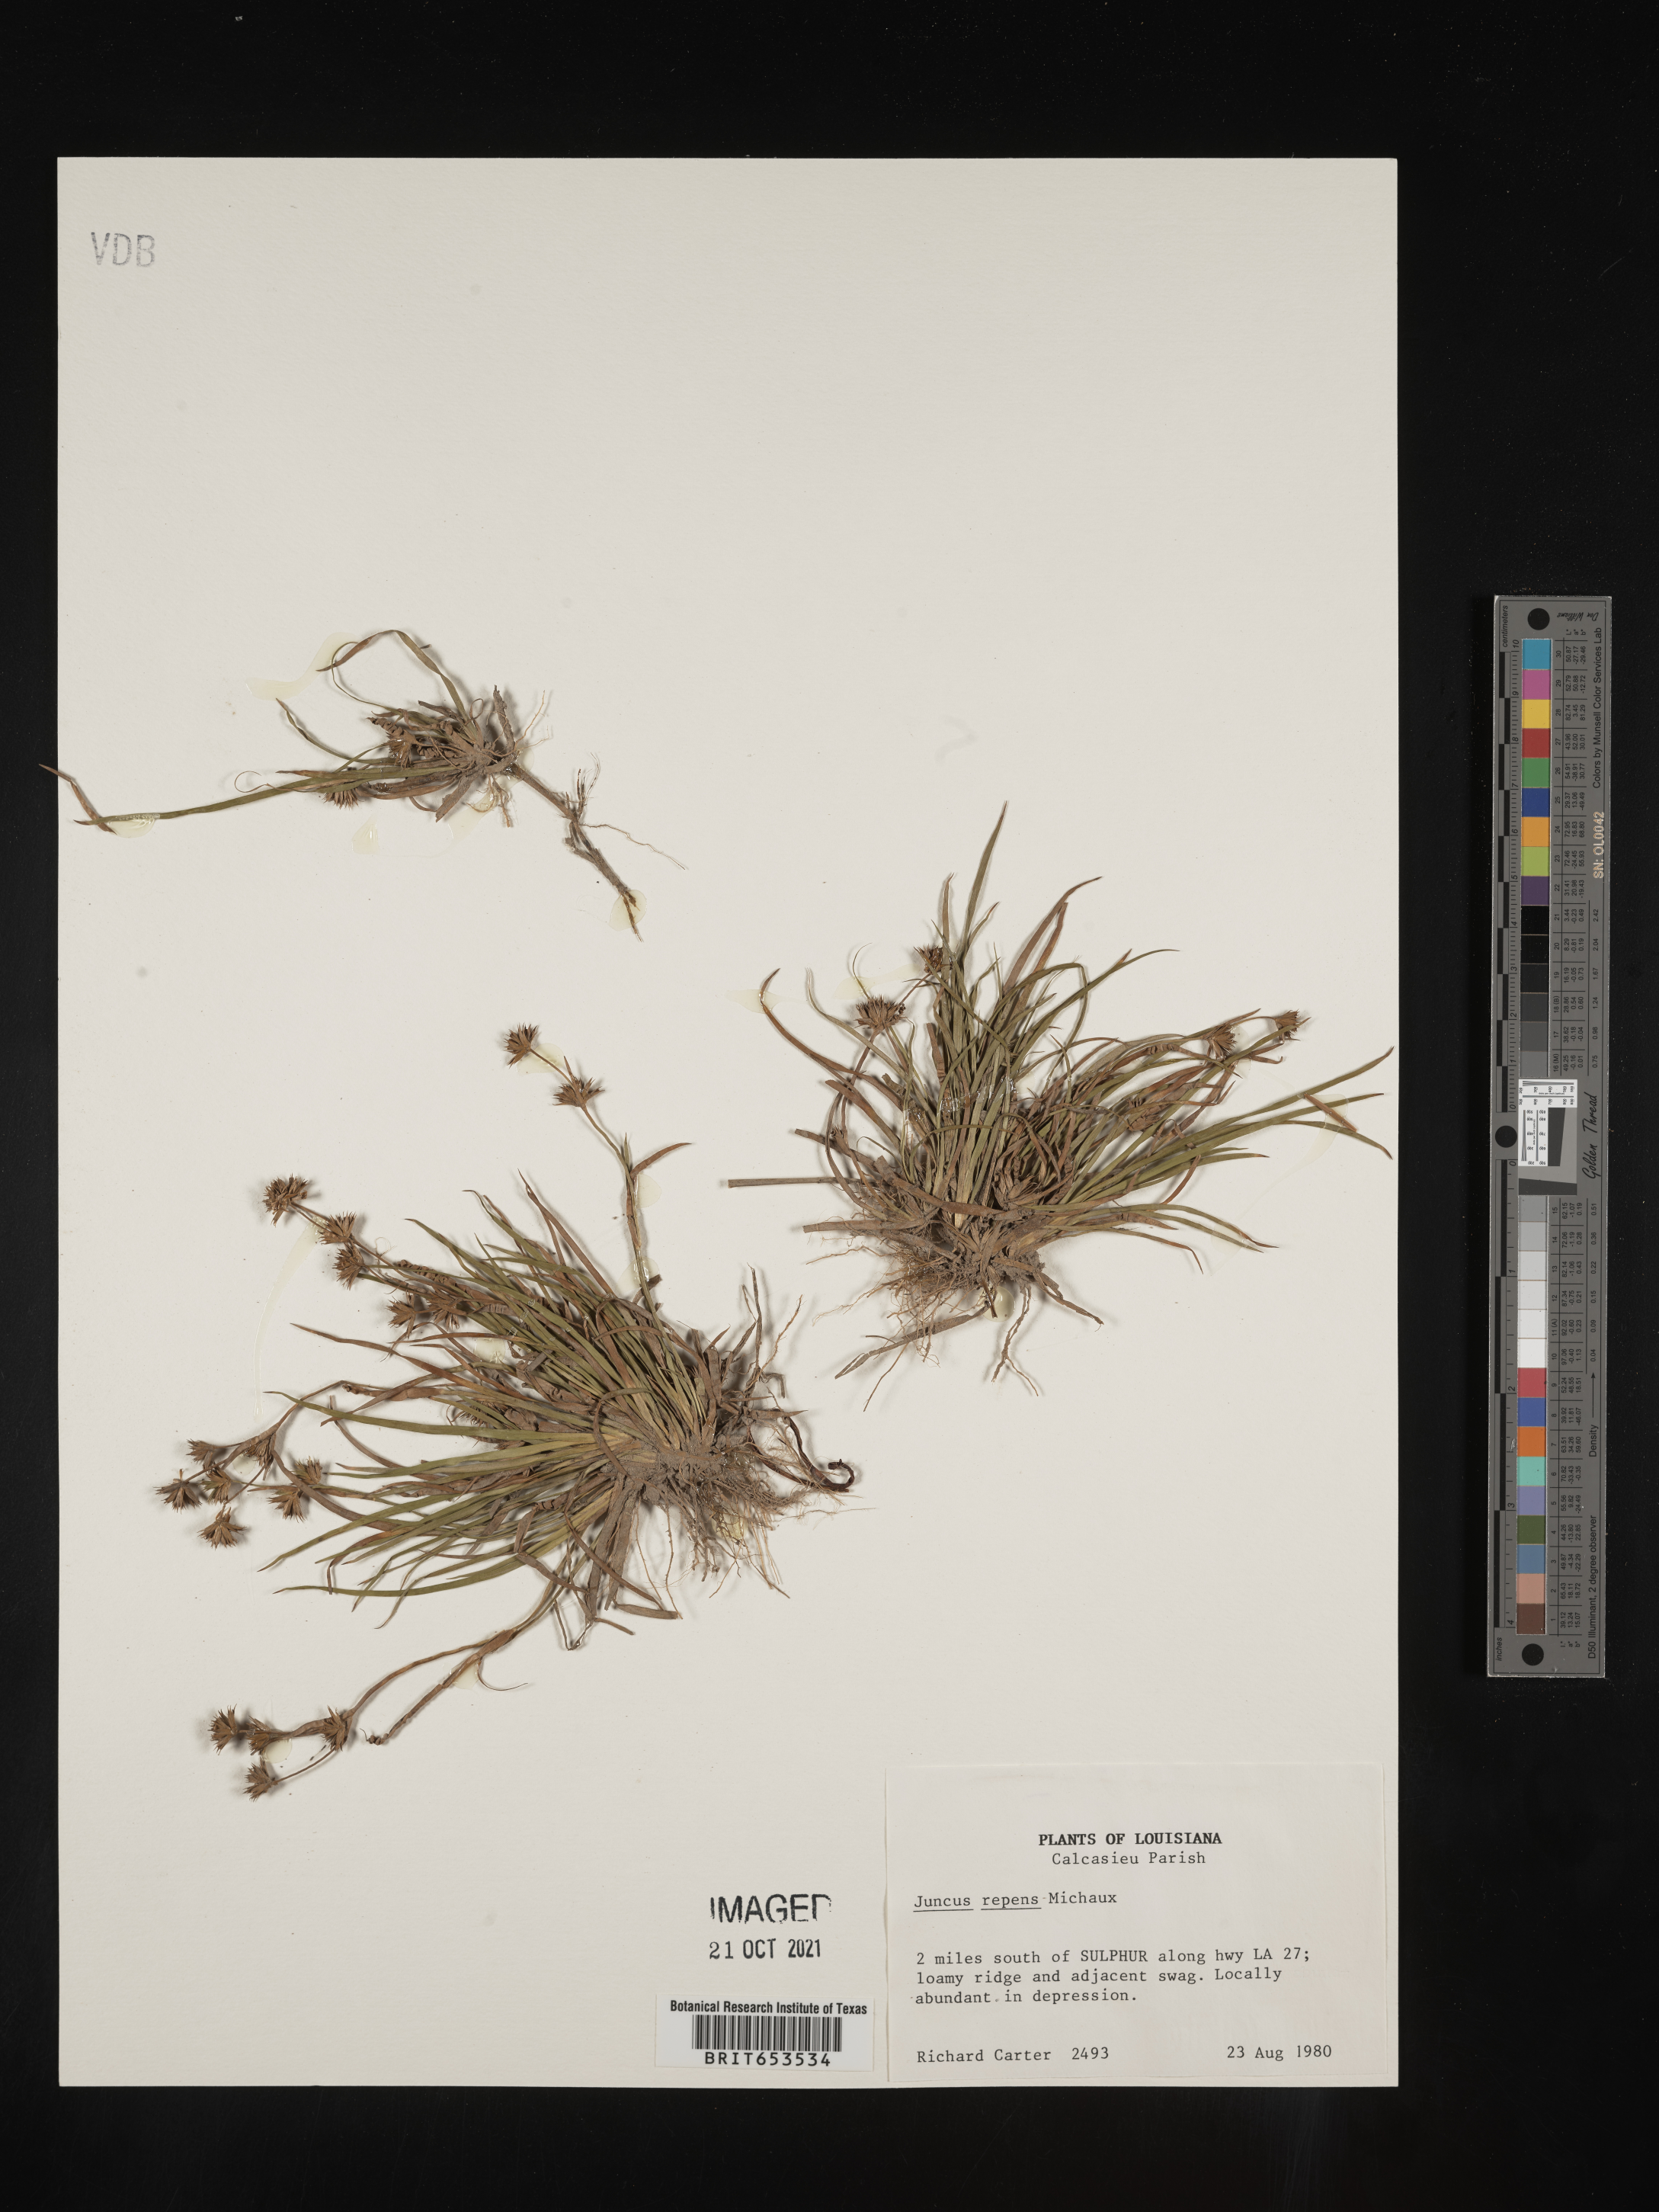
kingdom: Plantae
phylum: Tracheophyta
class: Liliopsida
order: Poales
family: Juncaceae
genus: Juncus
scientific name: Juncus repens
